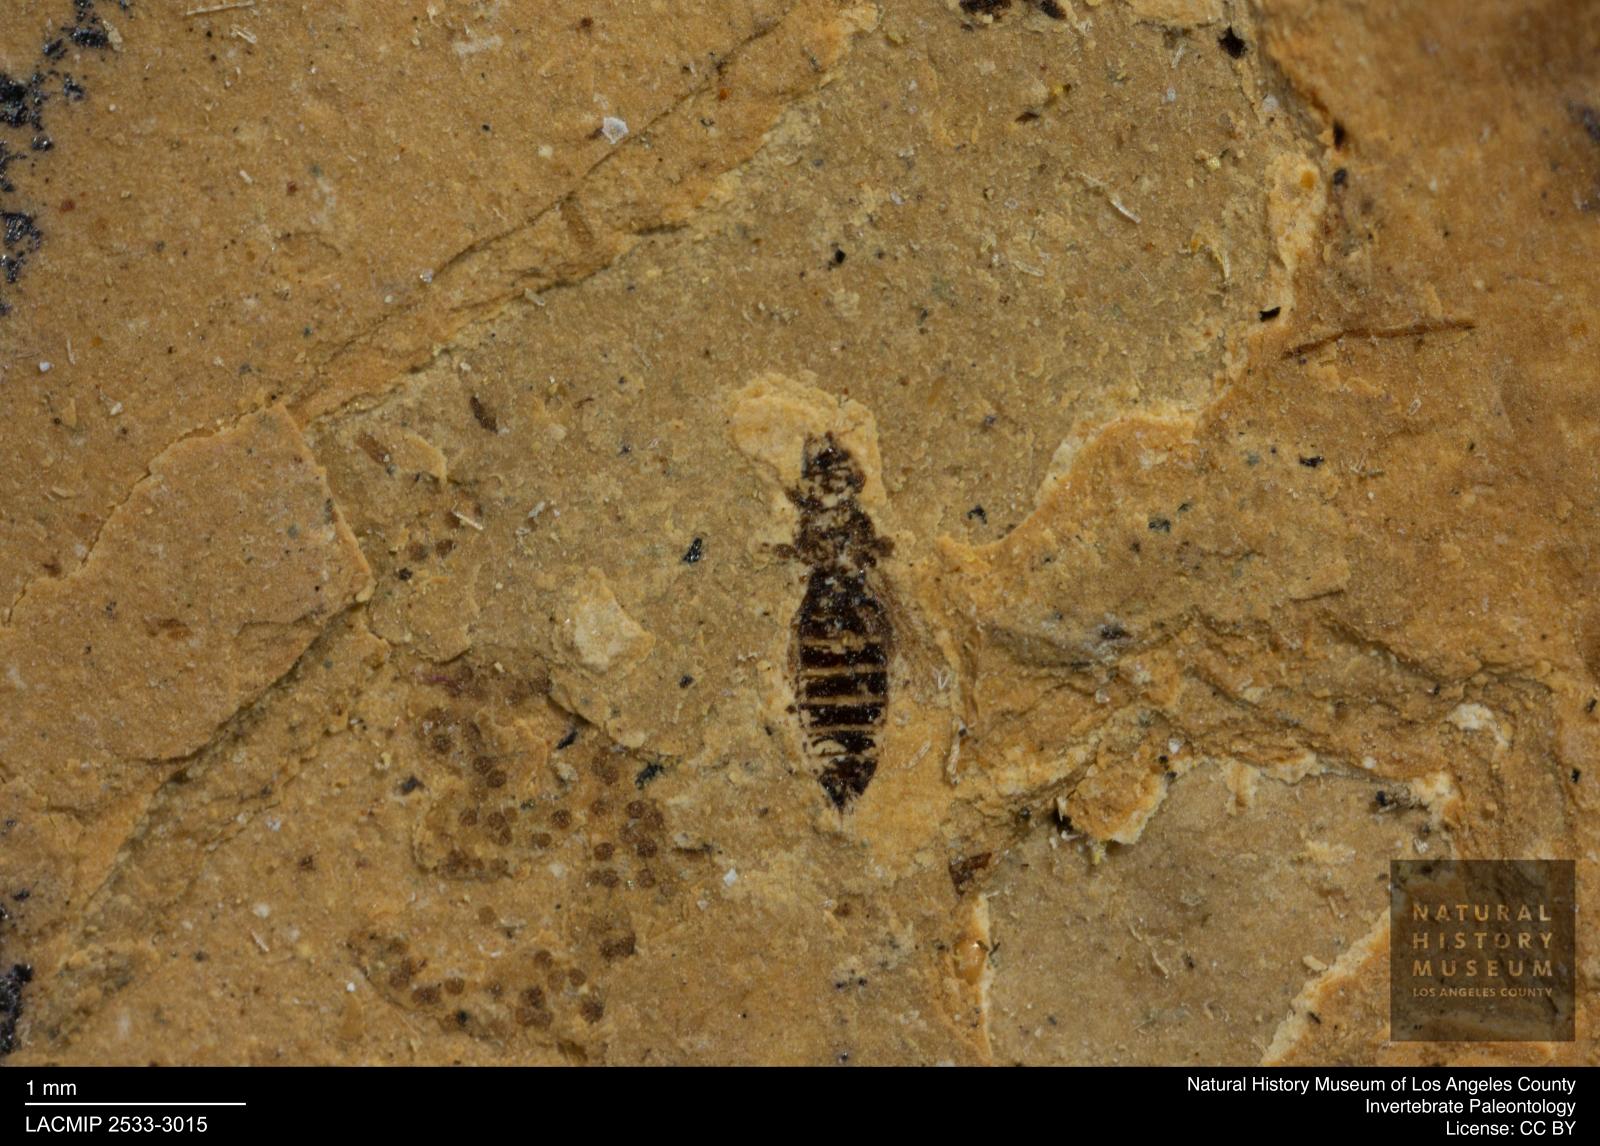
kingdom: Animalia
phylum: Arthropoda
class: Insecta
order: Thysanoptera
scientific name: Thysanoptera
